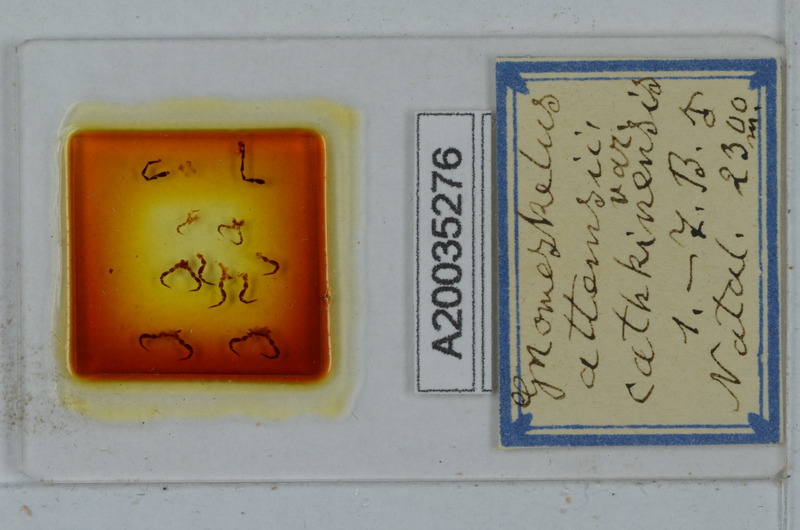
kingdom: Animalia
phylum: Arthropoda
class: Diplopoda
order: Polydesmida
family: Dalodesmidae
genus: Gnomeskelus
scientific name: Gnomeskelus attemsii
